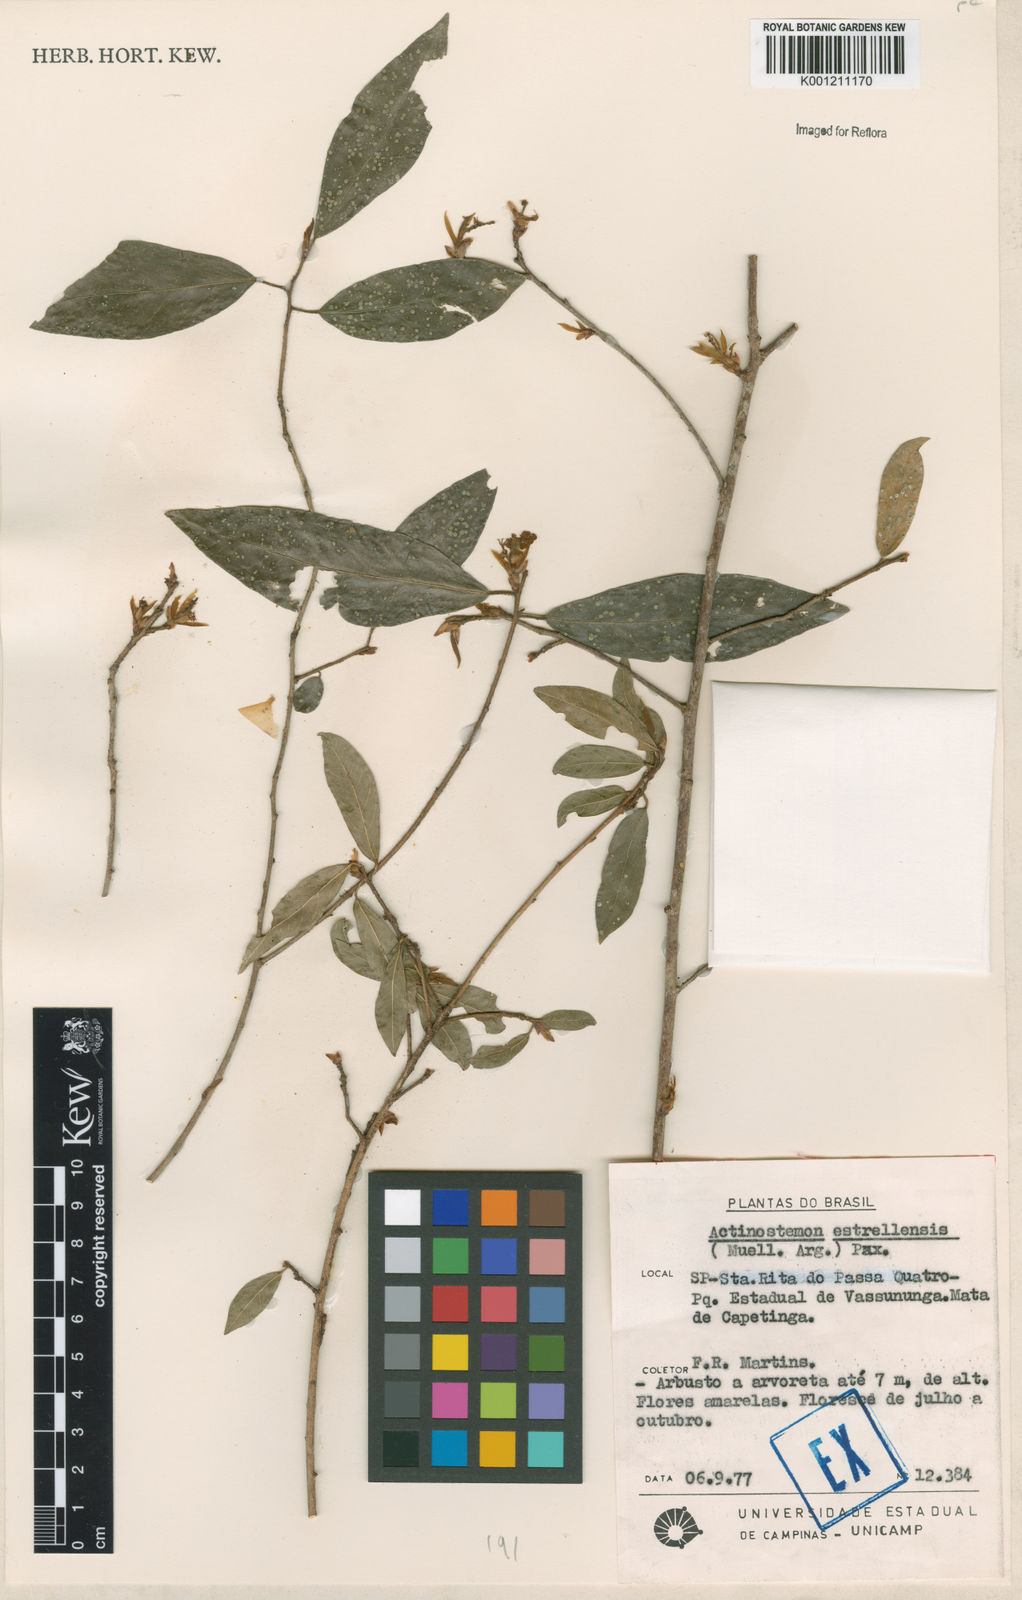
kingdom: Plantae
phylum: Tracheophyta
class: Magnoliopsida
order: Malpighiales
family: Euphorbiaceae
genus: Actinostemon
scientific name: Actinostemon klotzschii
